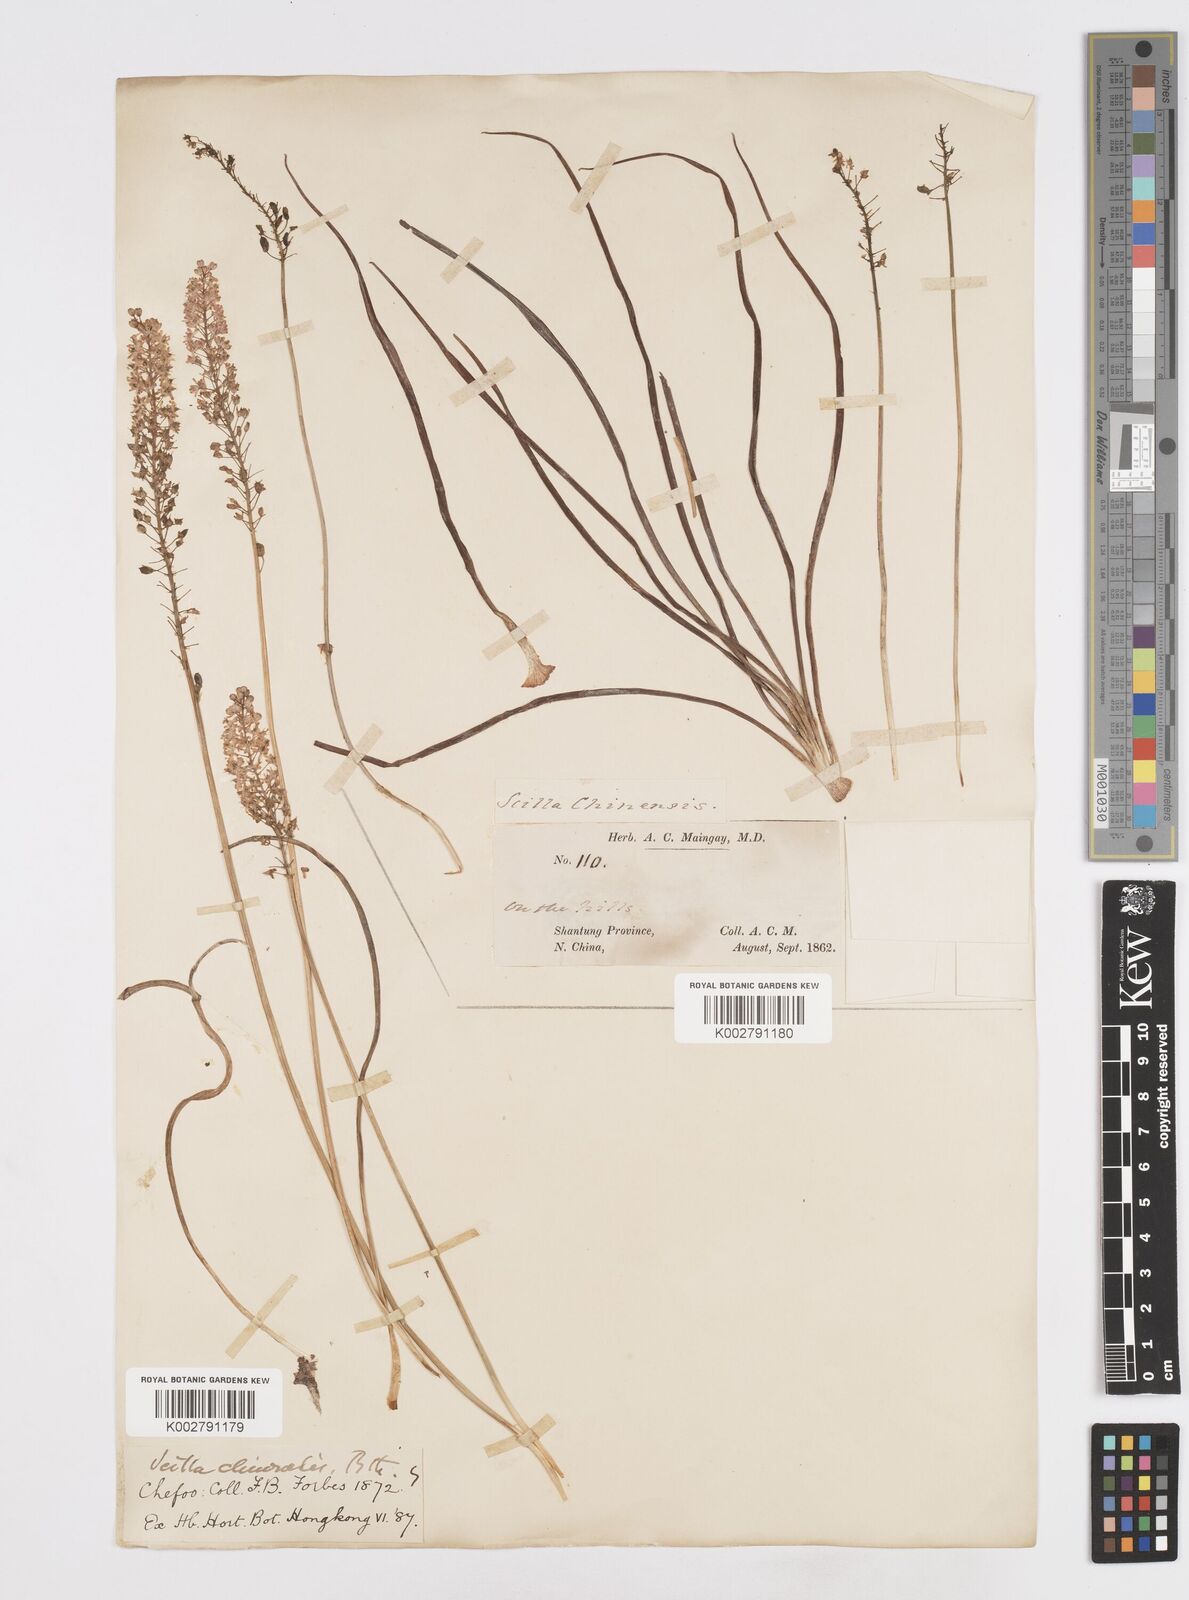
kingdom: Plantae
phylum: Tracheophyta
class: Liliopsida
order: Asparagales
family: Asparagaceae
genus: Barnardia
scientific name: Barnardia japonica
